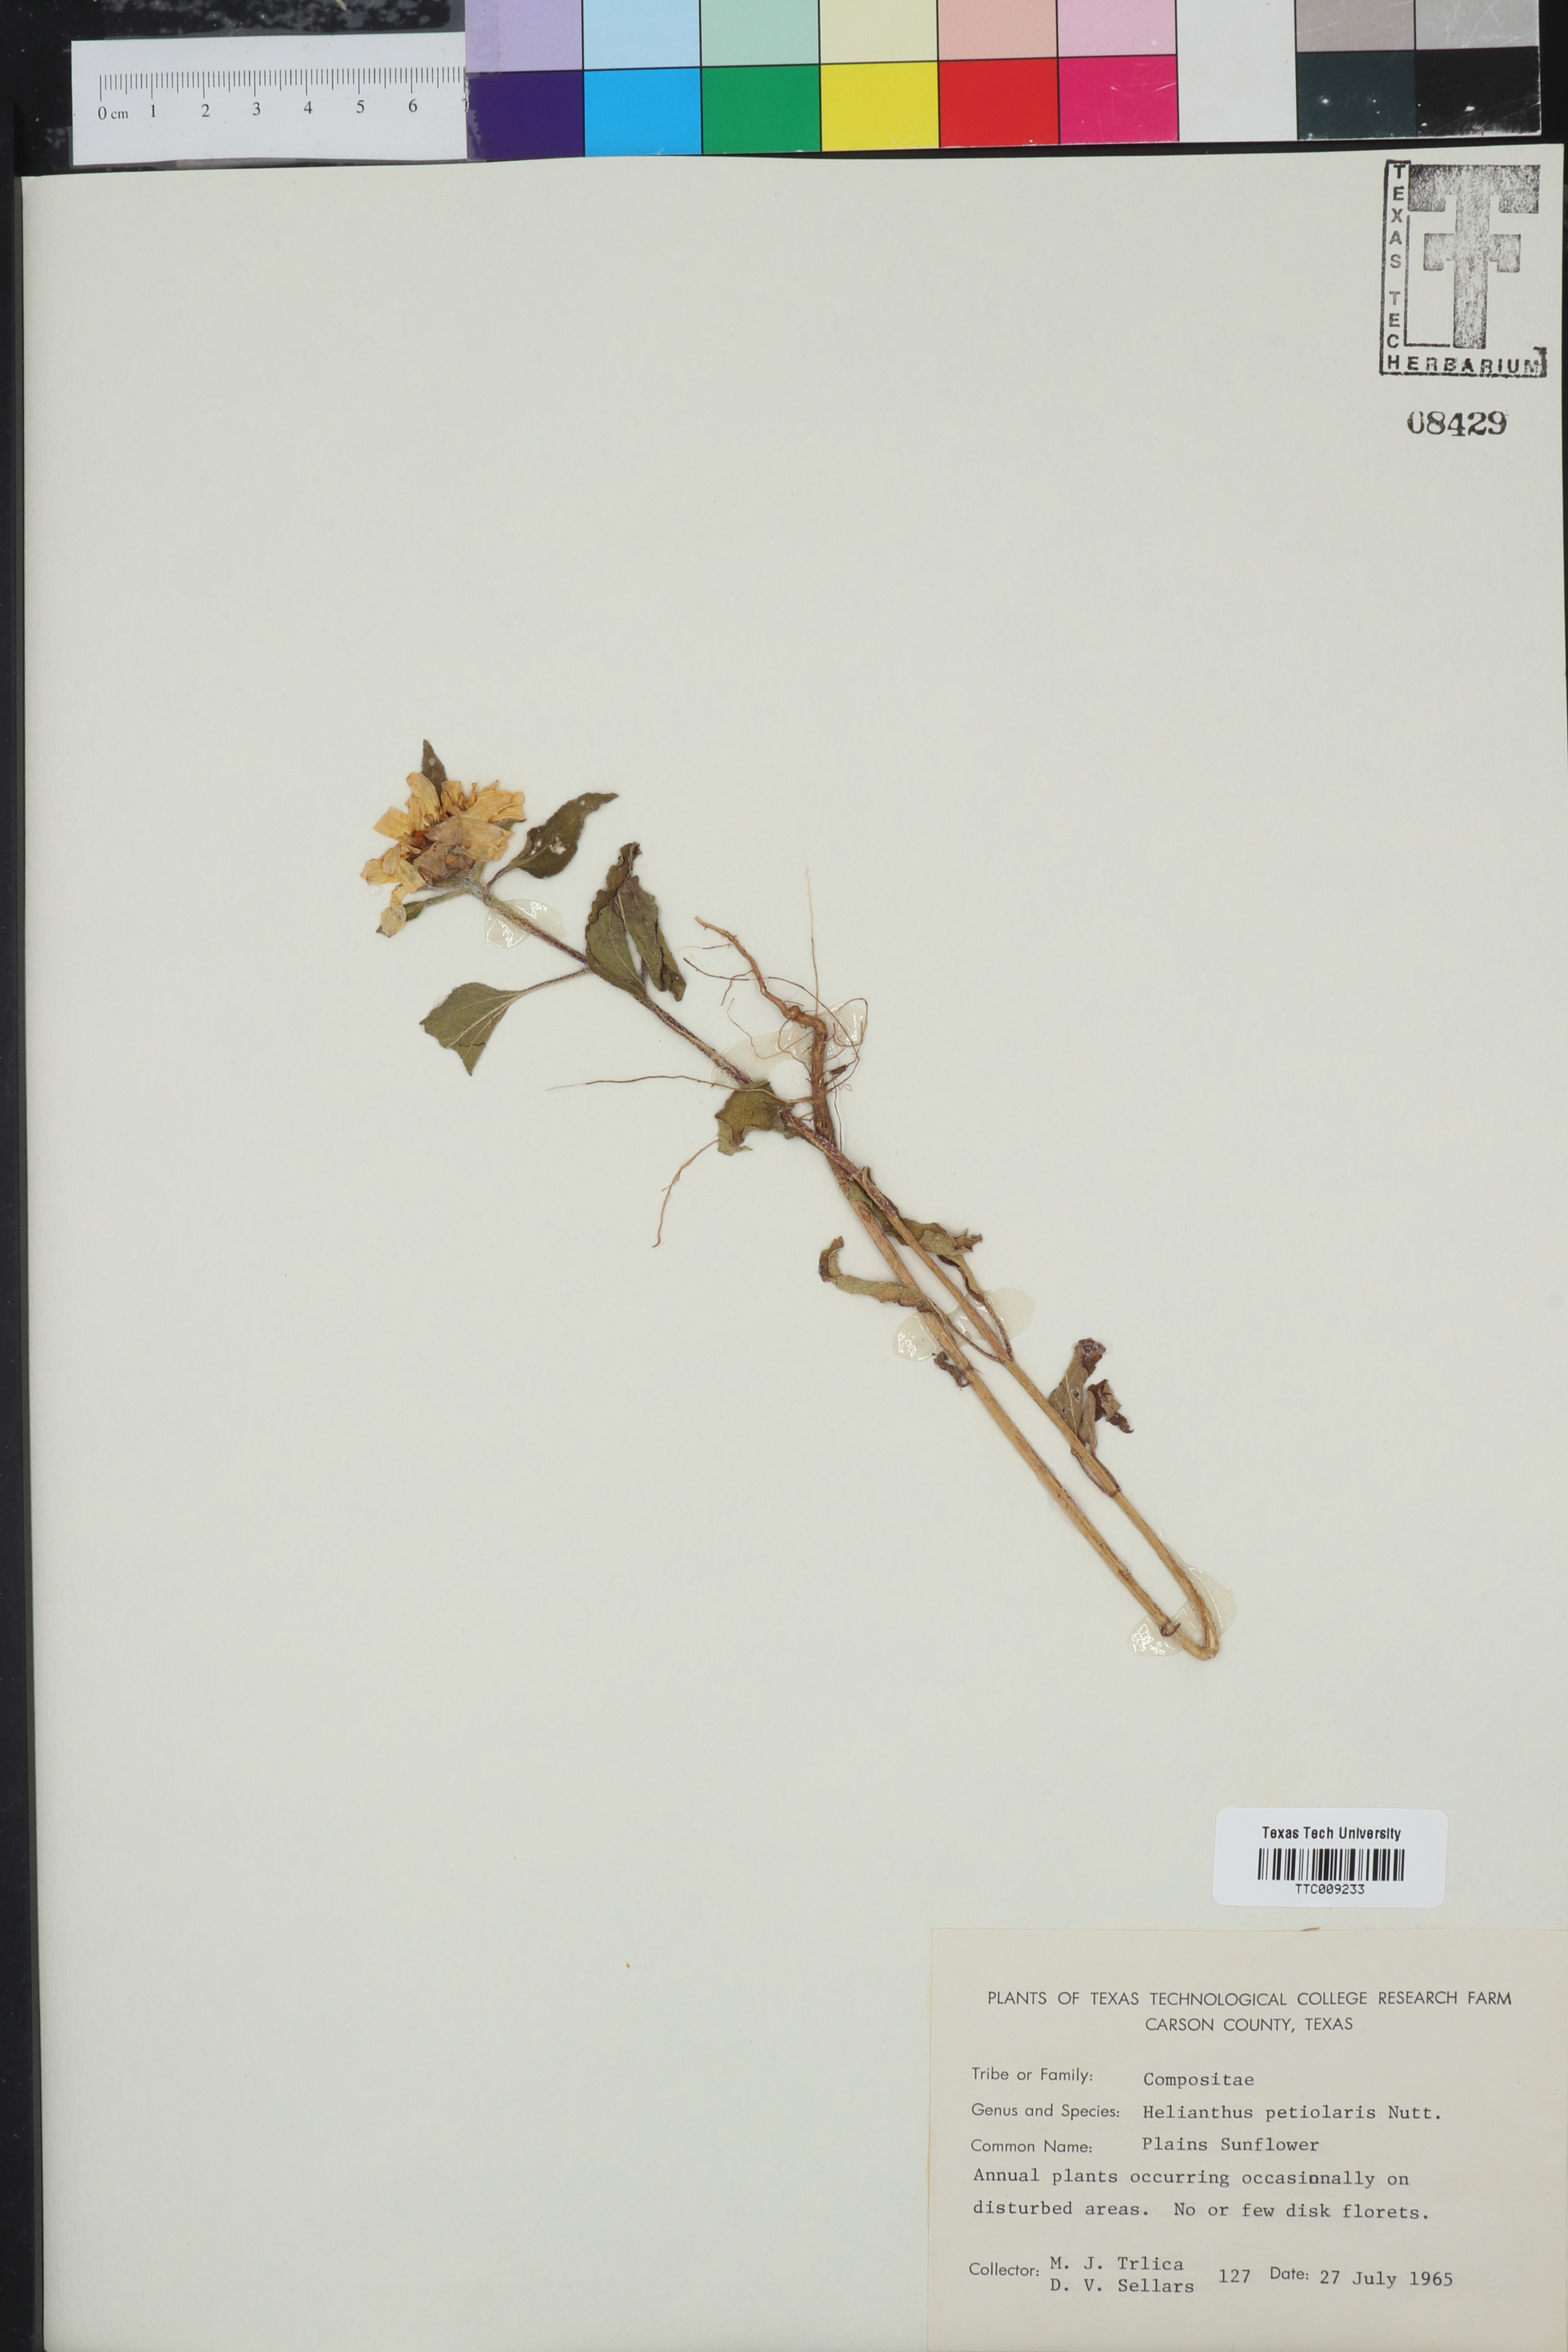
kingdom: Plantae
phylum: Tracheophyta
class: Magnoliopsida
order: Asterales
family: Asteraceae
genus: Helianthus
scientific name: Helianthus petiolaris
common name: Lesser sunflower
